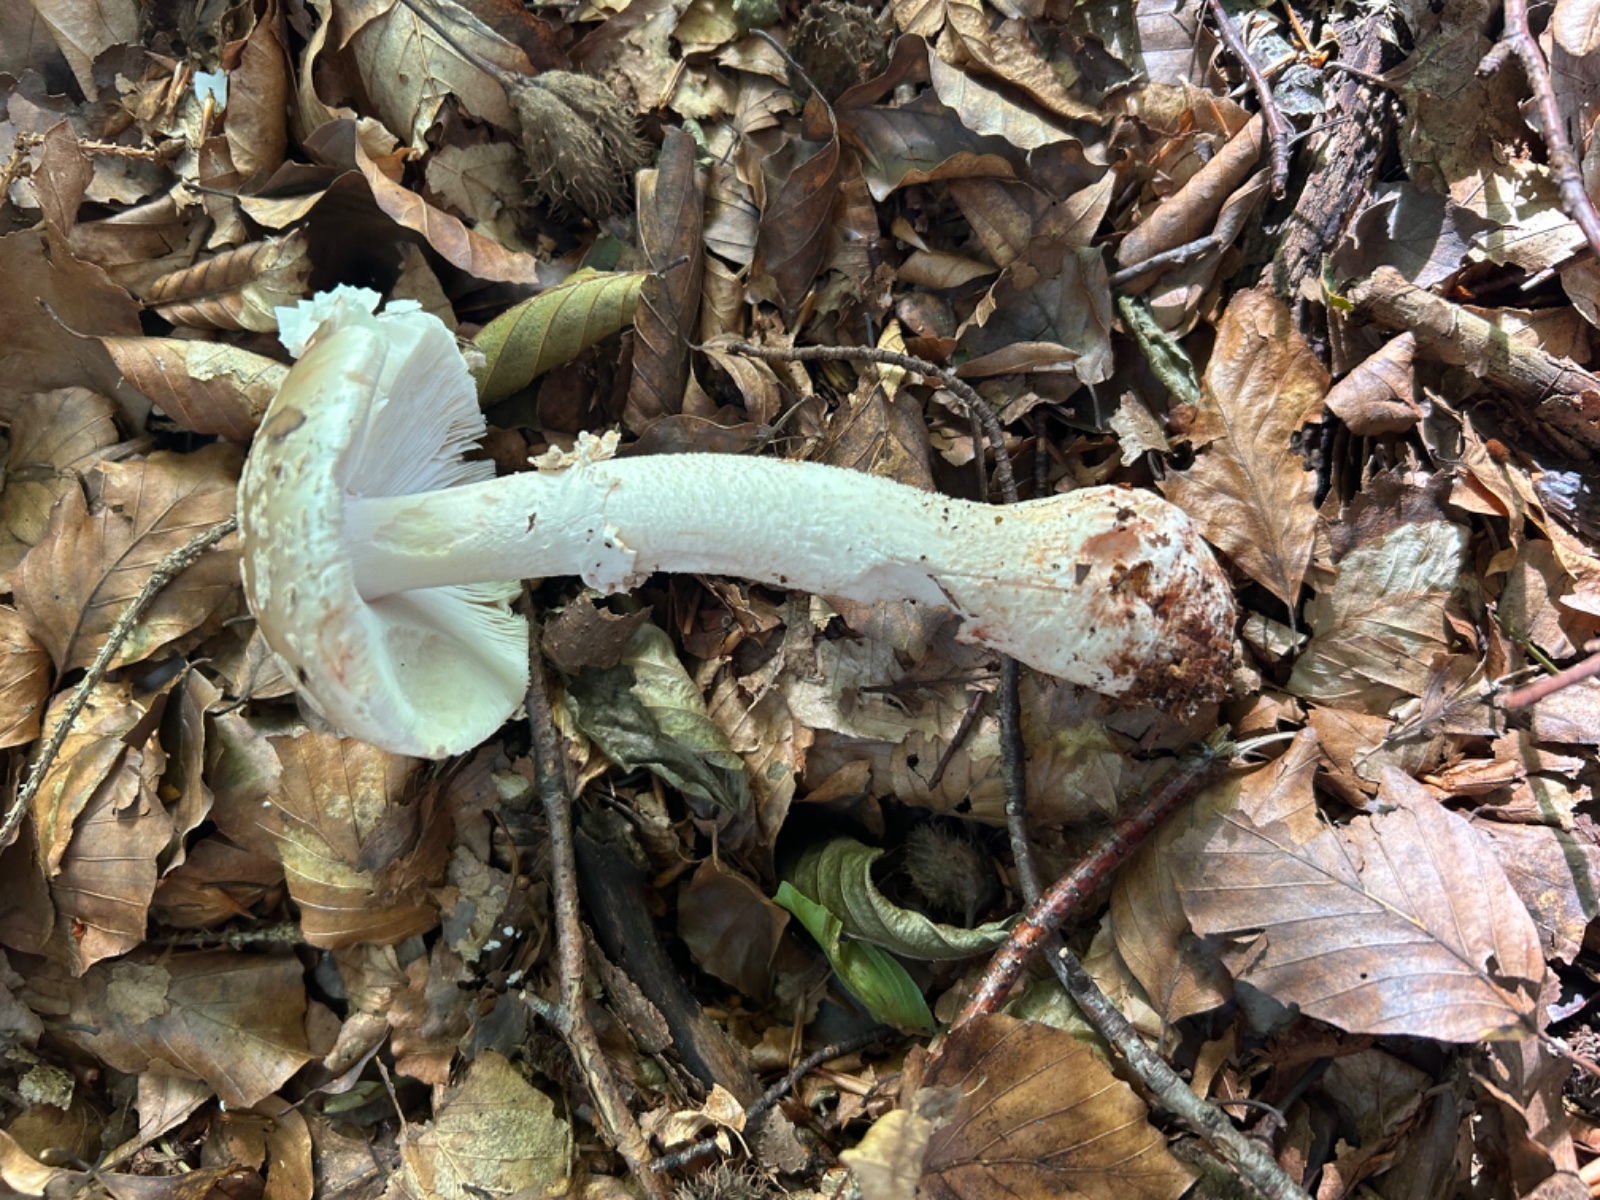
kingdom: Fungi
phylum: Basidiomycota
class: Agaricomycetes
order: Agaricales
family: Amanitaceae
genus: Amanita
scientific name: Amanita rubescens
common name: rødmende fluesvamp
